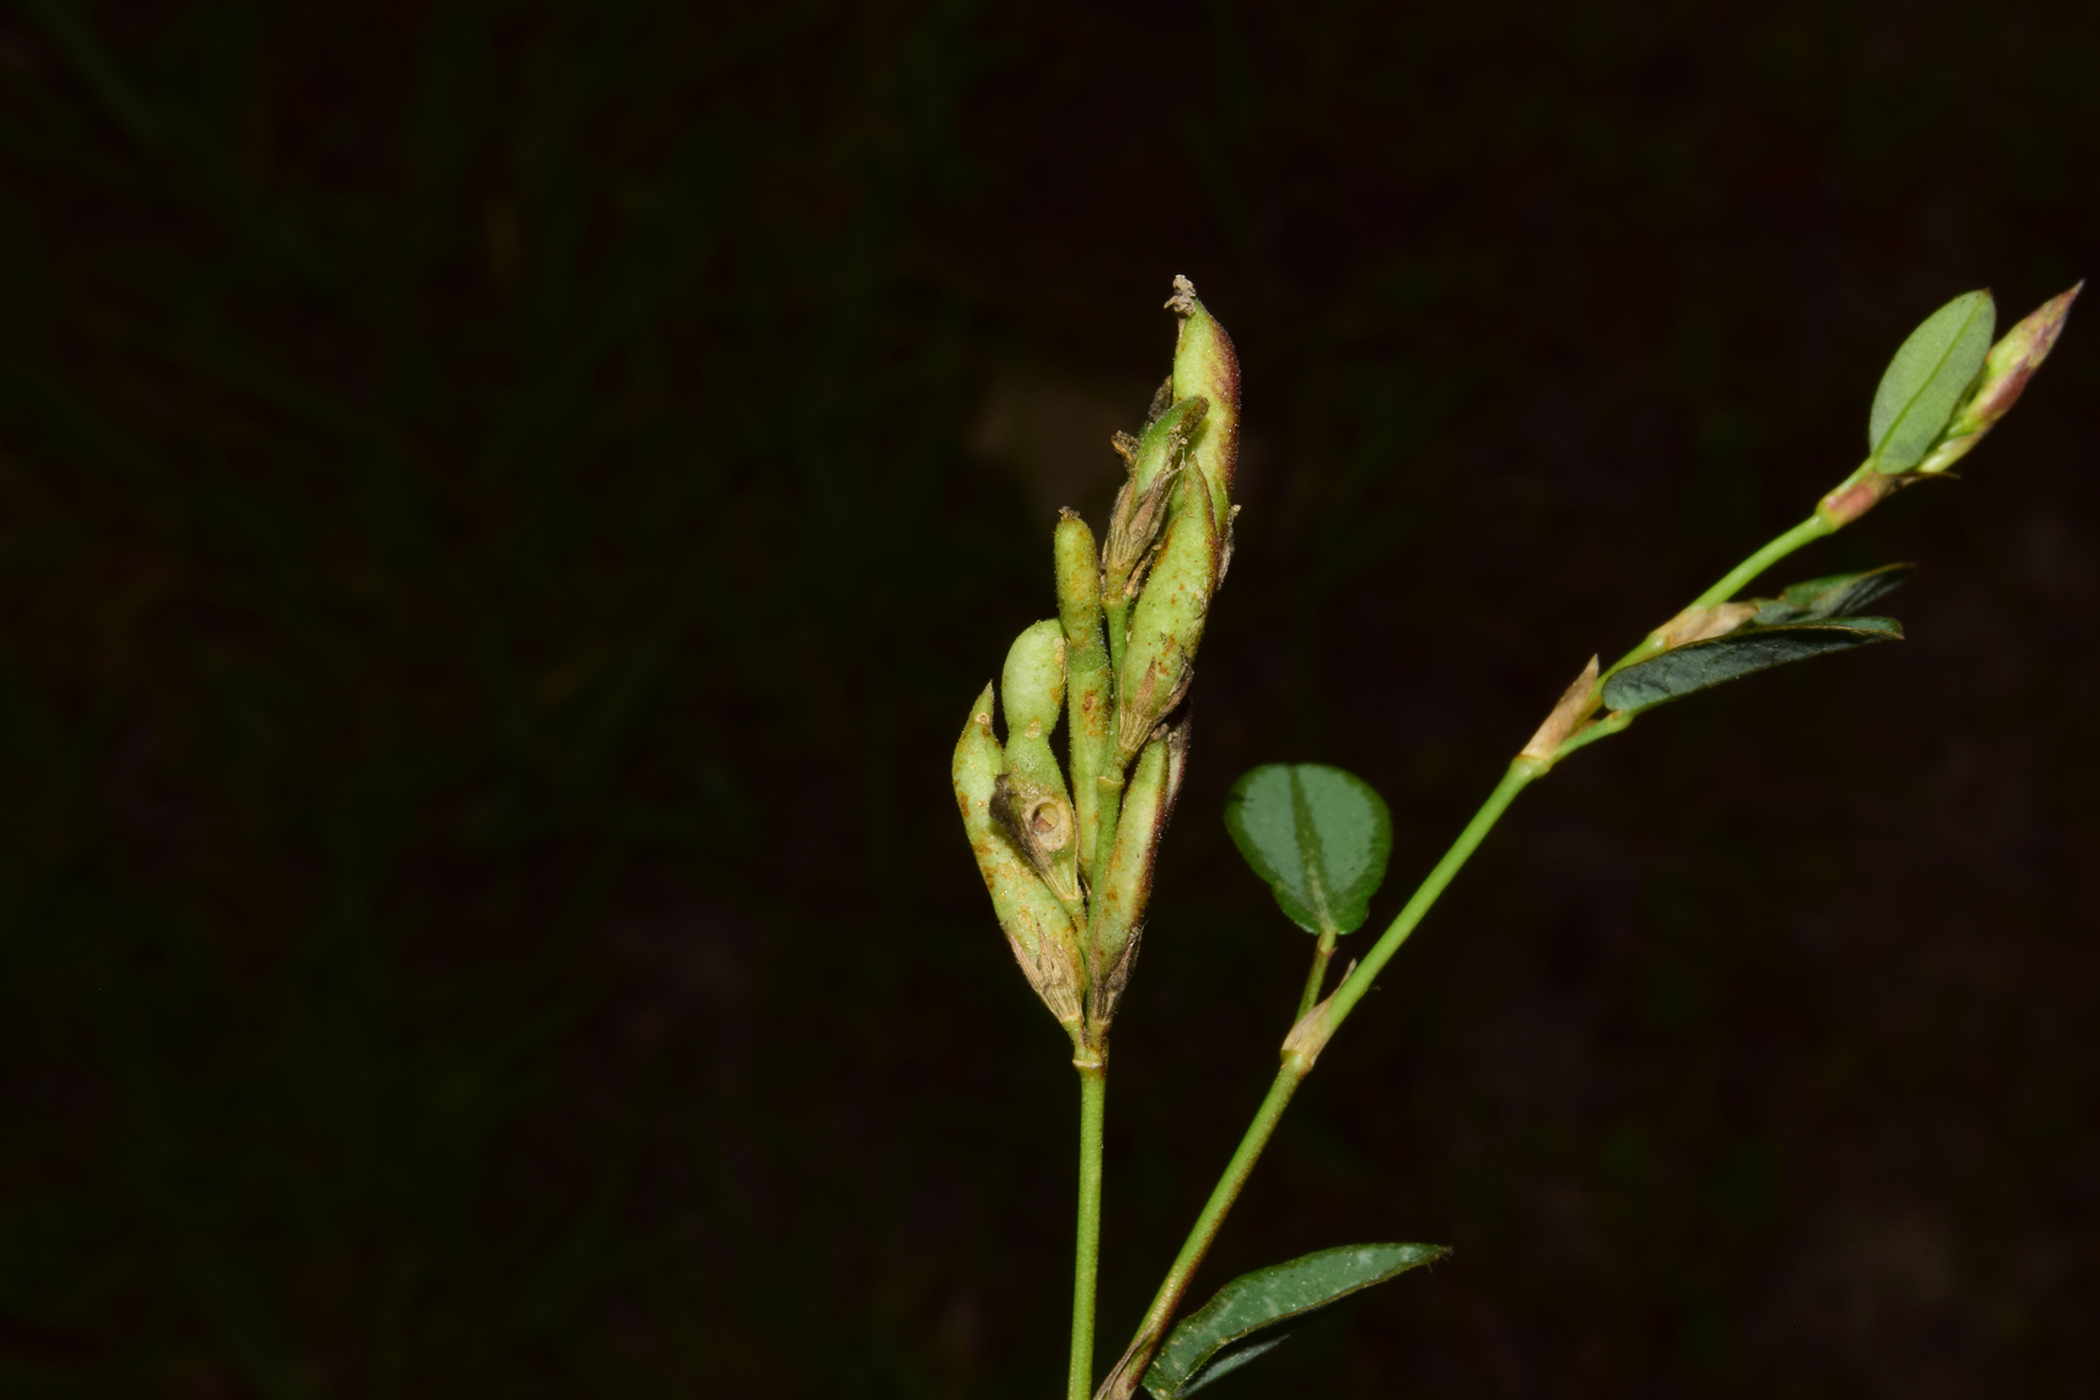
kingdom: Plantae
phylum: Tracheophyta
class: Magnoliopsida
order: Fabales
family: Fabaceae
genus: Alysicarpus
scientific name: Alysicarpus vaginalis
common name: White moneywort
